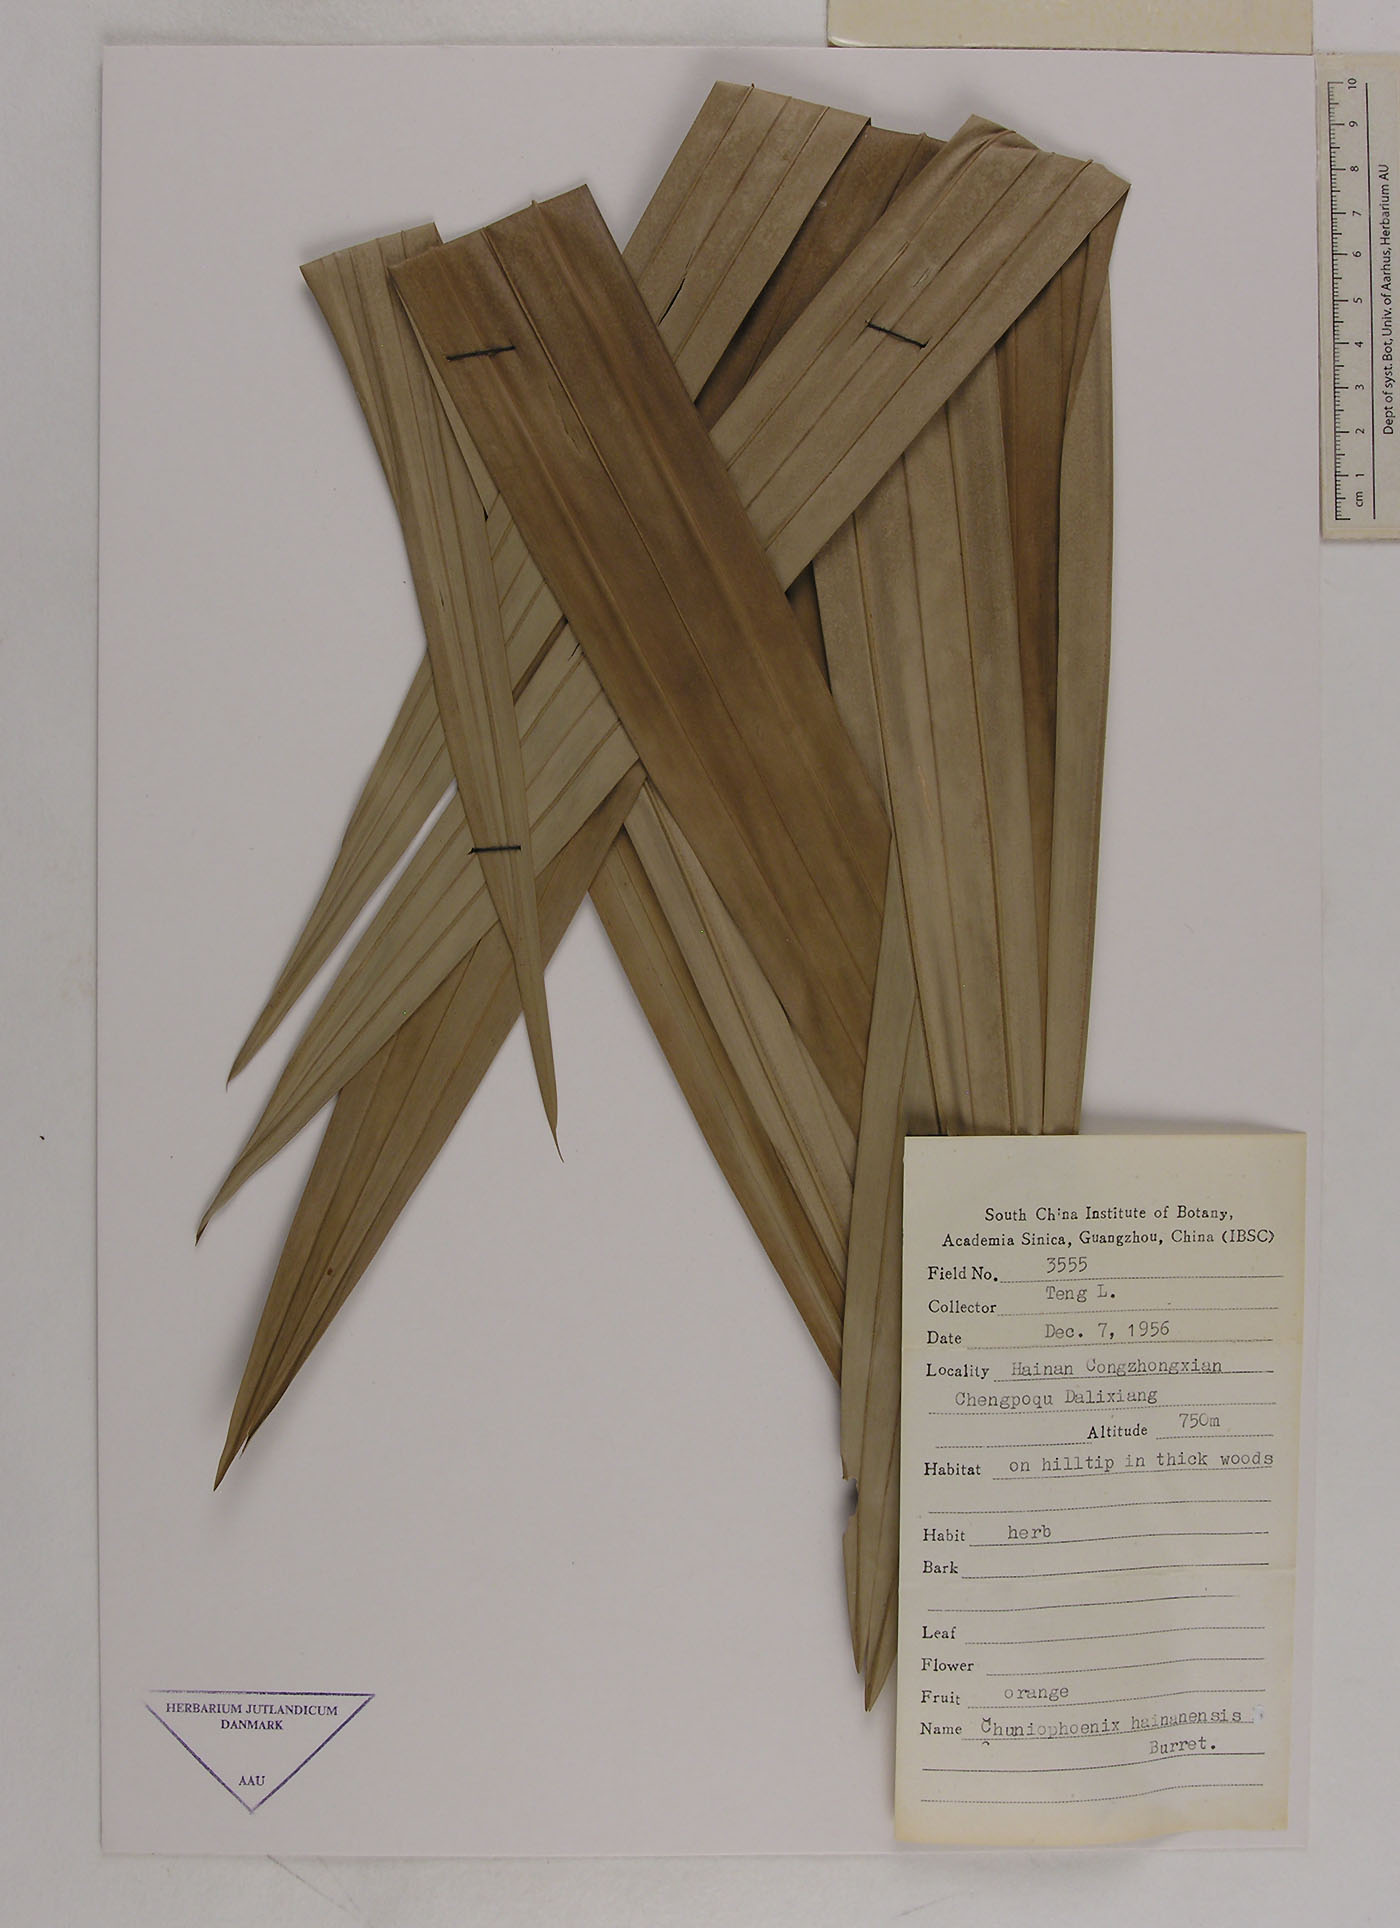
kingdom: Plantae
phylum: Tracheophyta
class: Liliopsida
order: Arecales
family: Arecaceae
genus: Chuniophoenix
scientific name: Chuniophoenix hainanensis
